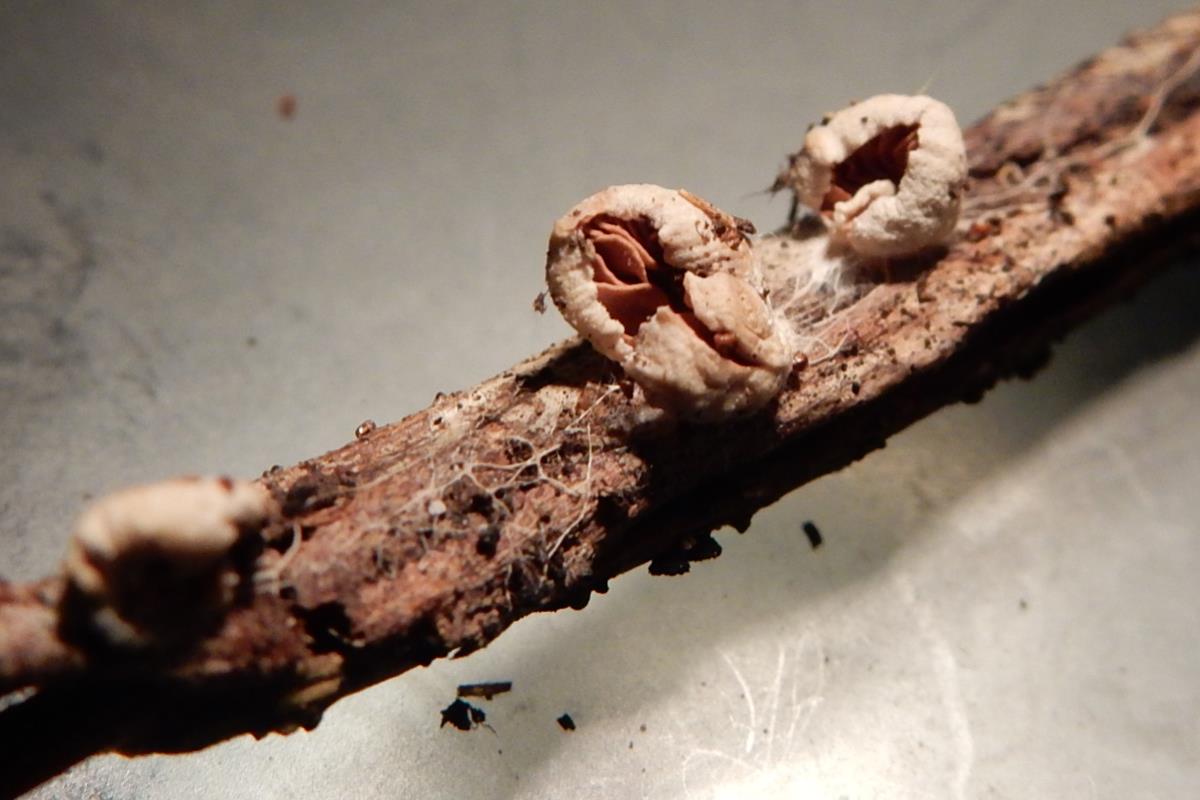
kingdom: Fungi
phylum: Basidiomycota
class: Agaricomycetes
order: Agaricales
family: Entolomataceae
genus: Entoloma
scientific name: Entoloma minutoalbum
